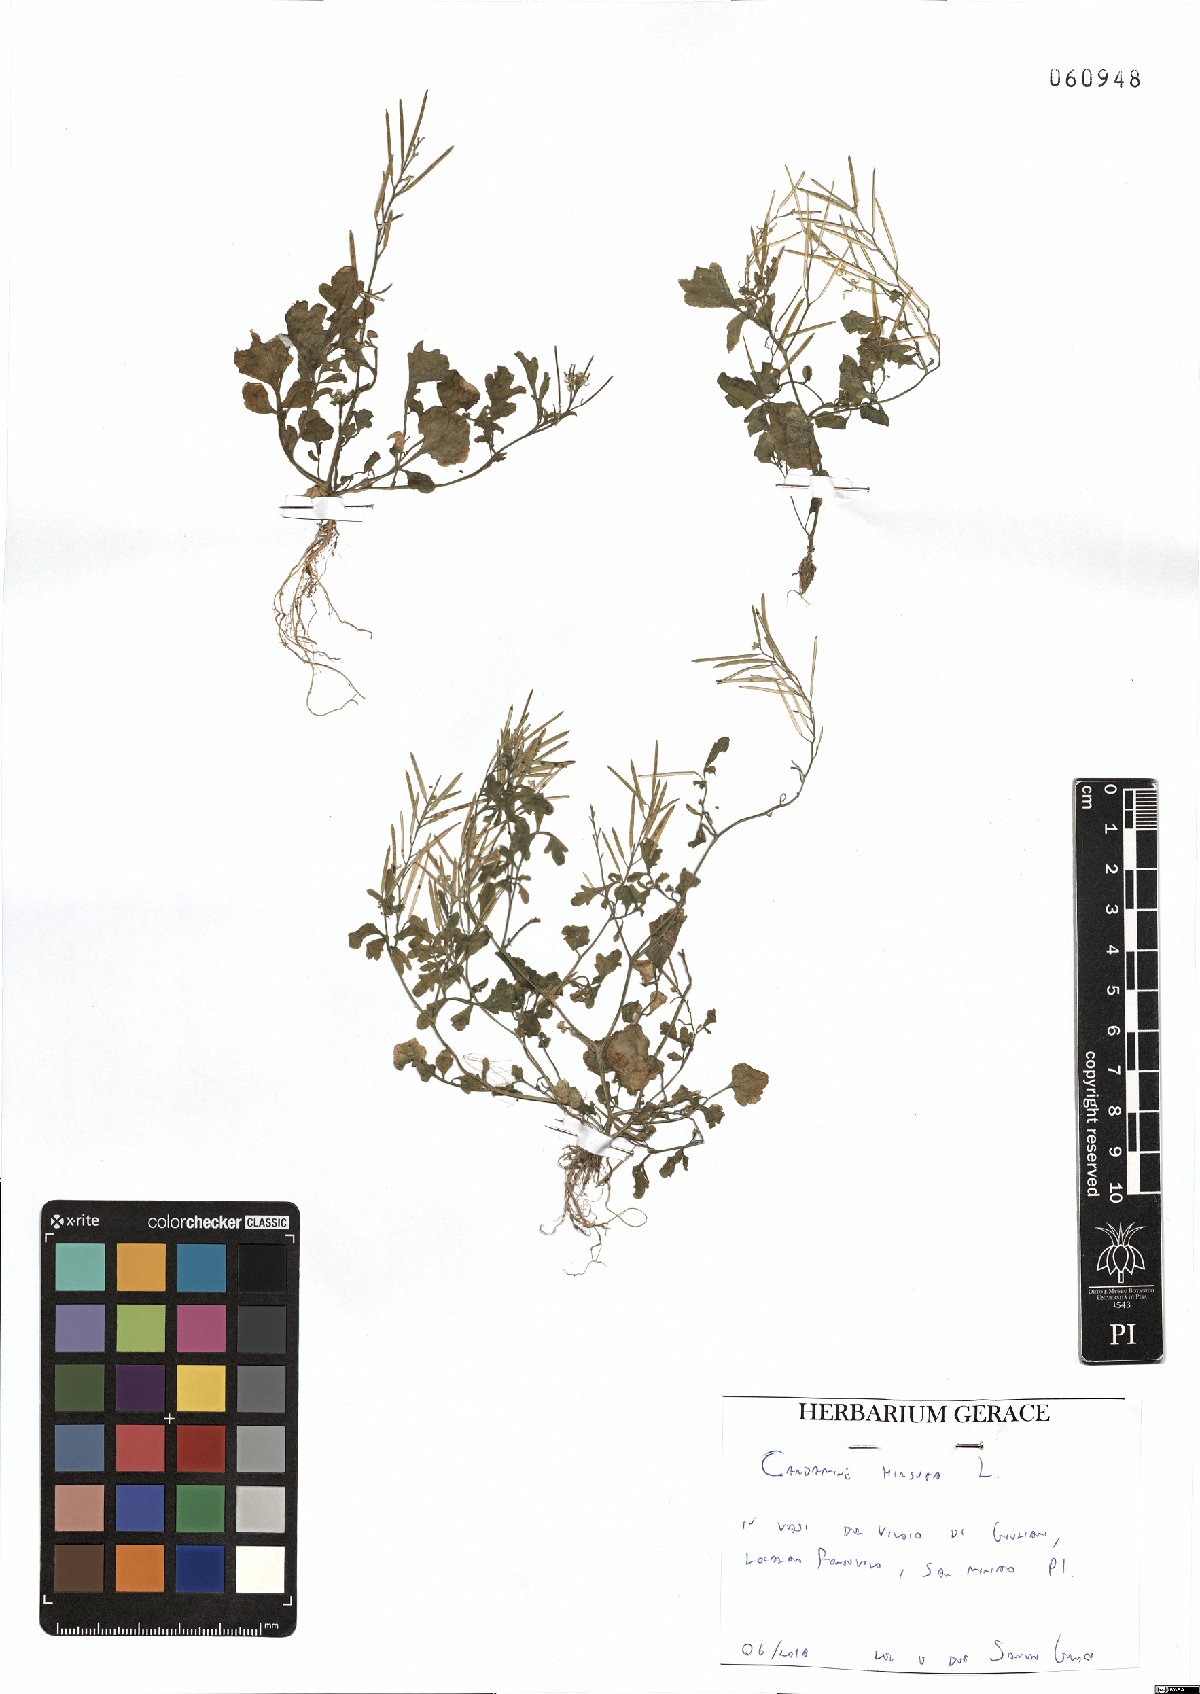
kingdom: Plantae
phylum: Tracheophyta
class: Magnoliopsida
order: Brassicales
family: Brassicaceae
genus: Cardamine
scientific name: Cardamine hirsuta
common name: Hairy bittercress
